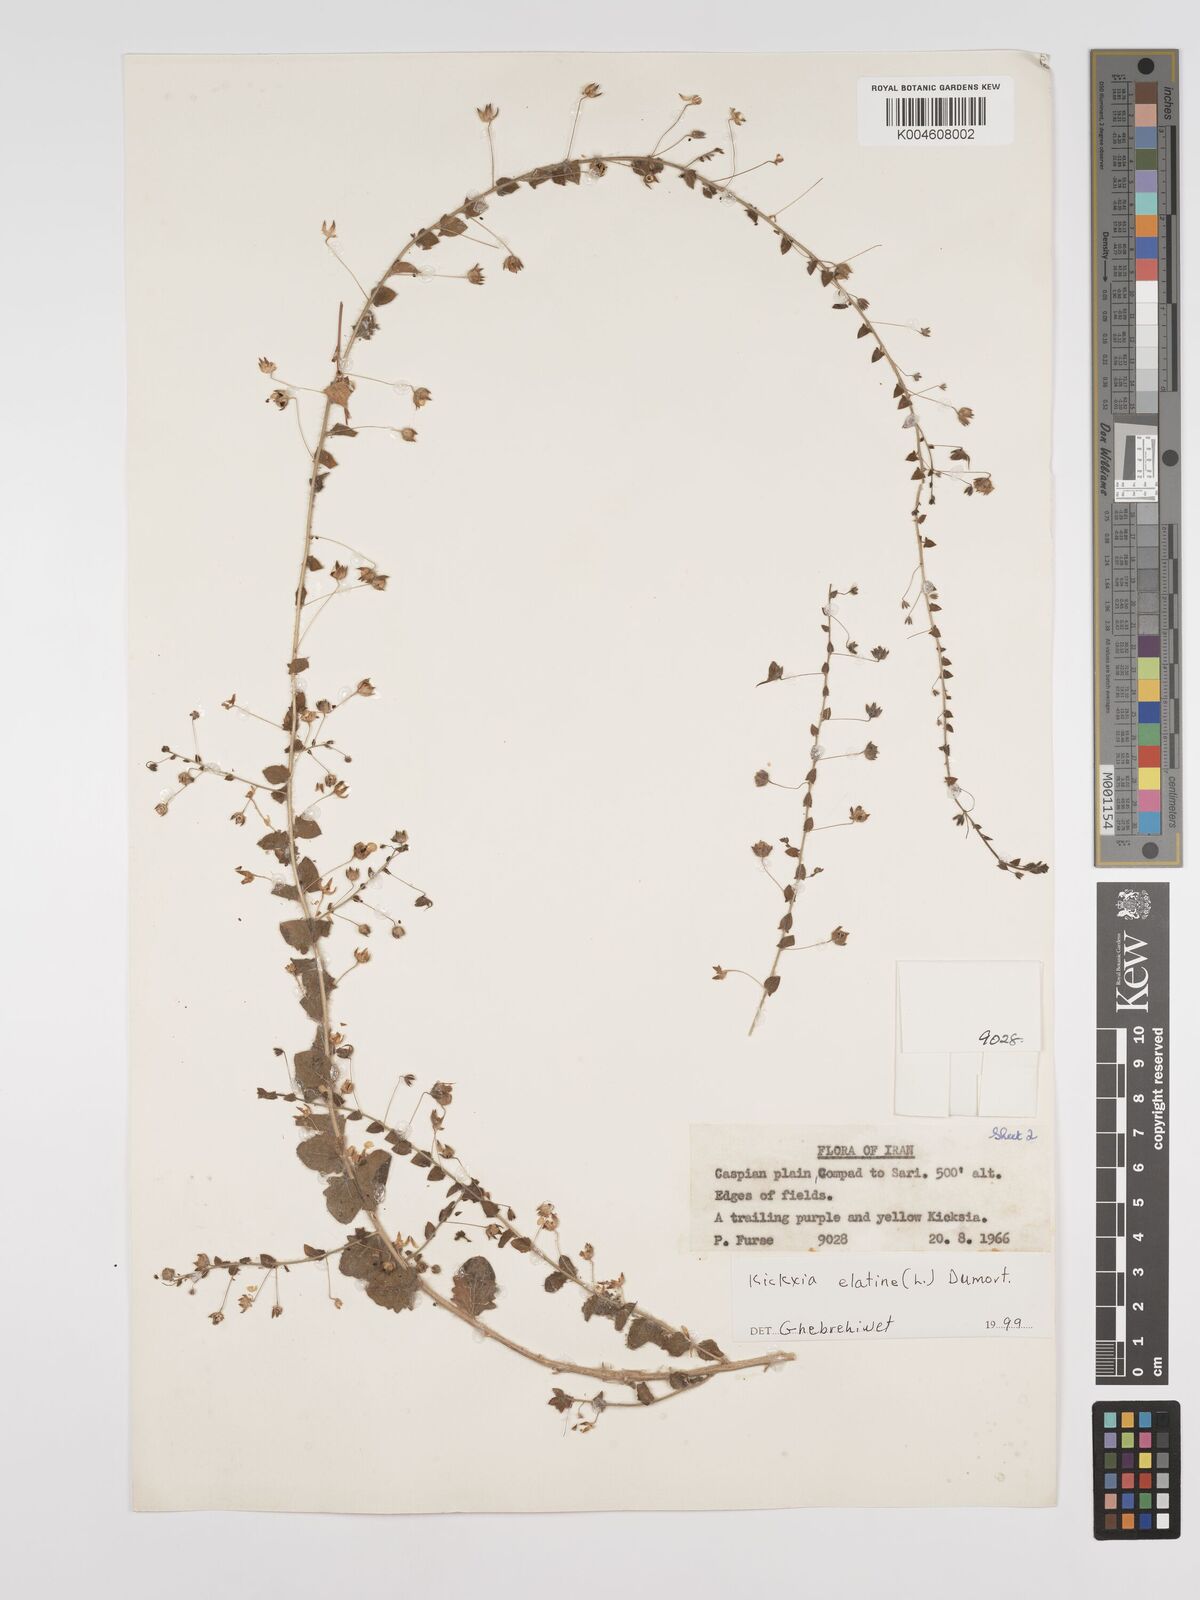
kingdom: Plantae
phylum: Tracheophyta
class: Magnoliopsida
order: Lamiales
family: Plantaginaceae
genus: Kickxia
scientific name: Kickxia elatine
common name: Sharp-leaved fluellen
